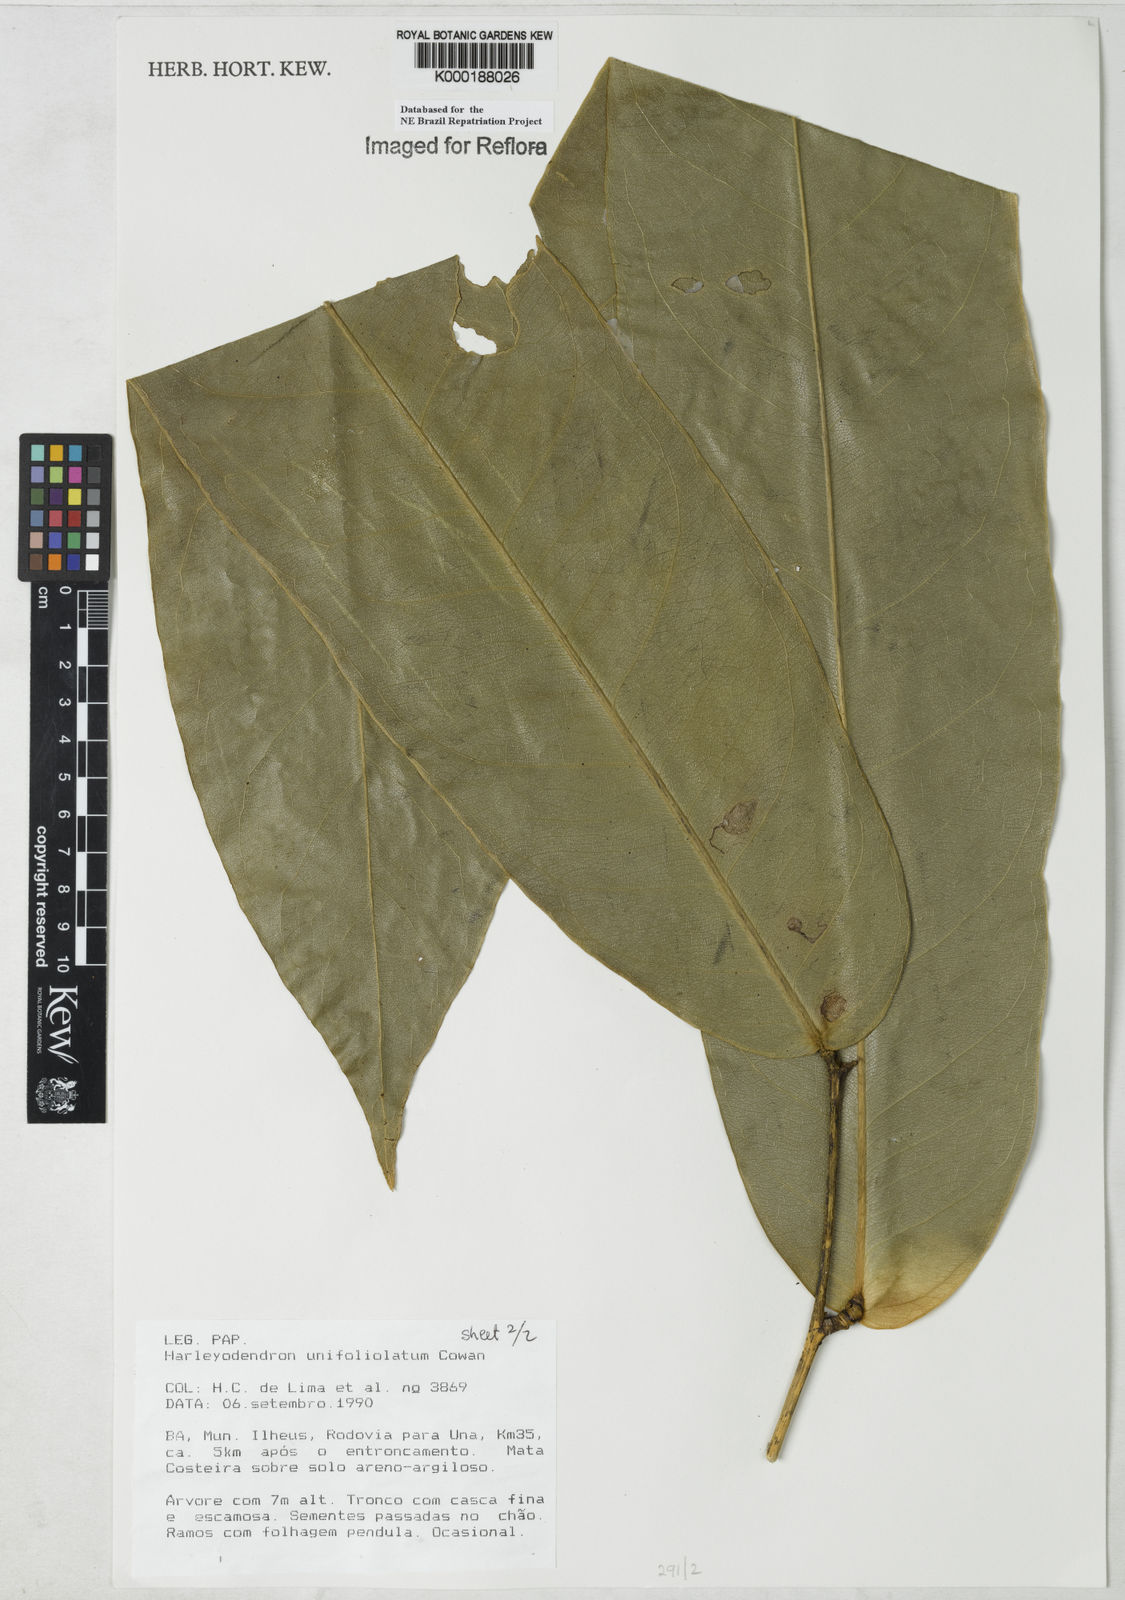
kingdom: Plantae
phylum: Tracheophyta
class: Magnoliopsida
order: Fabales
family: Fabaceae
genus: Harleyodendron
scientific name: Harleyodendron unifoliolatum
